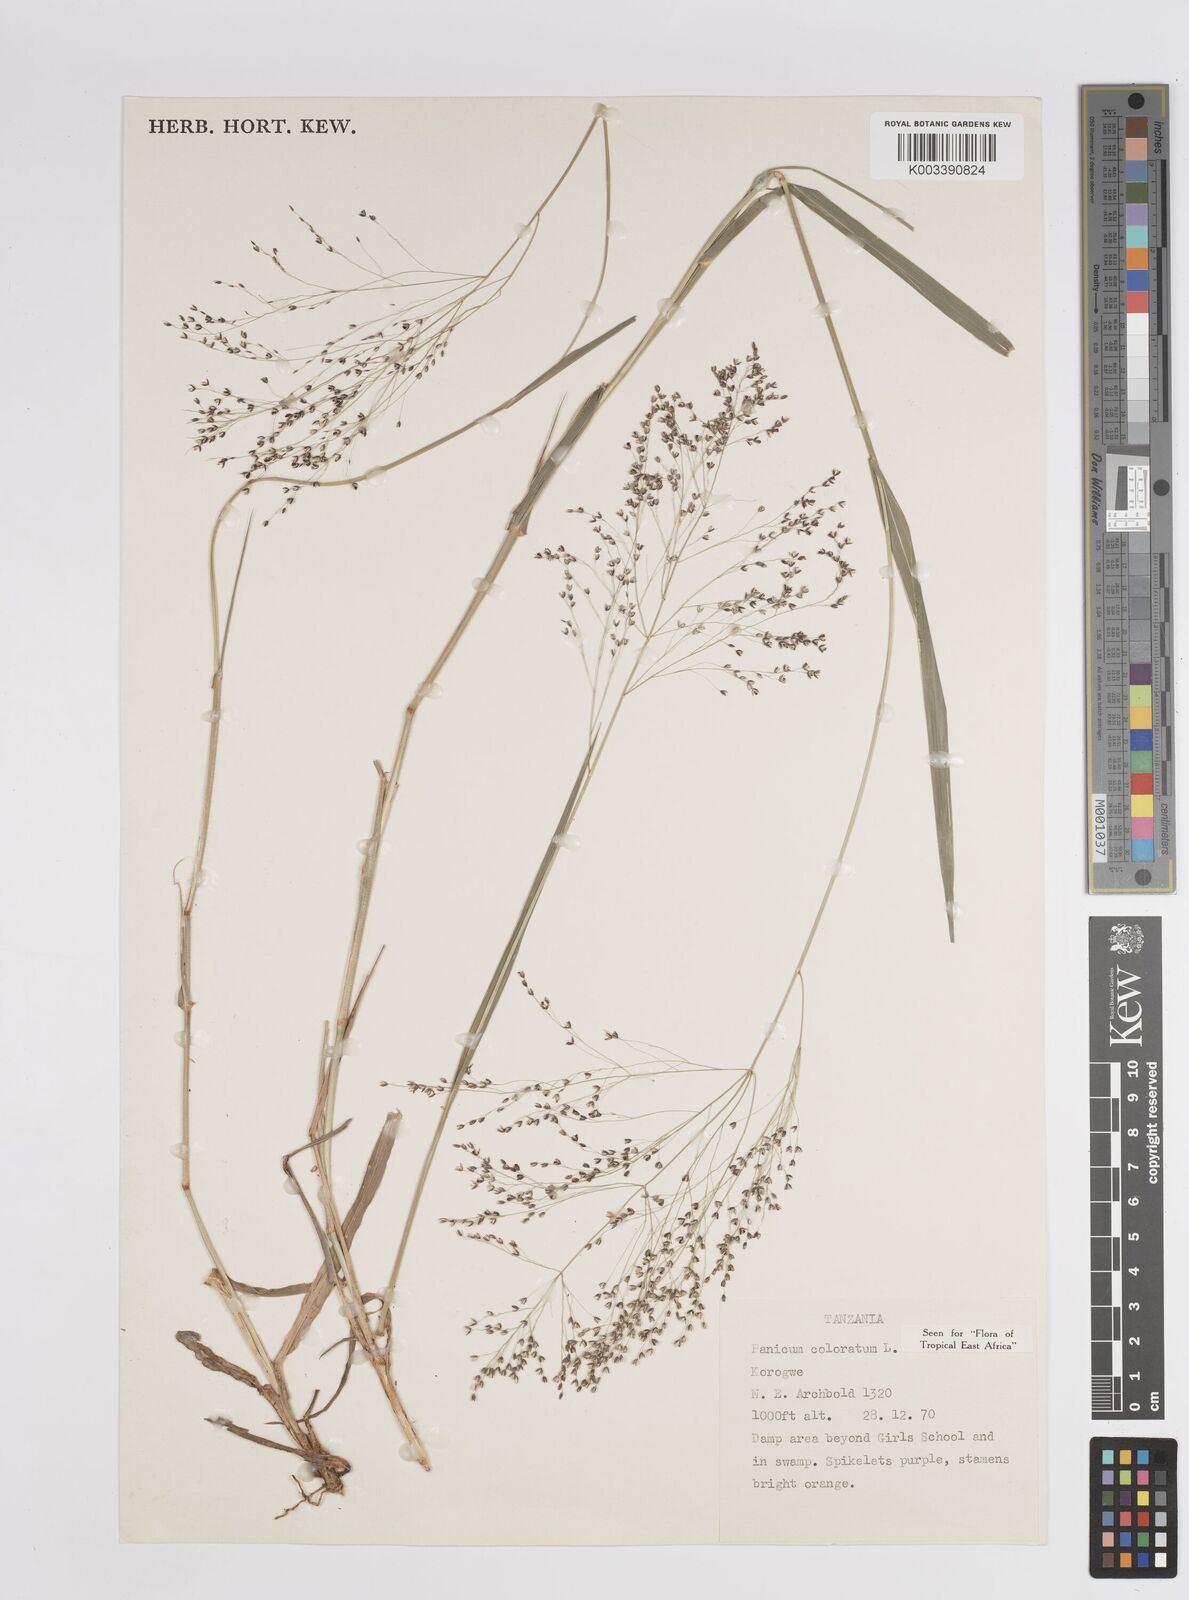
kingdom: Plantae
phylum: Tracheophyta
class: Liliopsida
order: Poales
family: Poaceae
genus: Panicum
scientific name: Panicum coloratum
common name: Kleingrass
